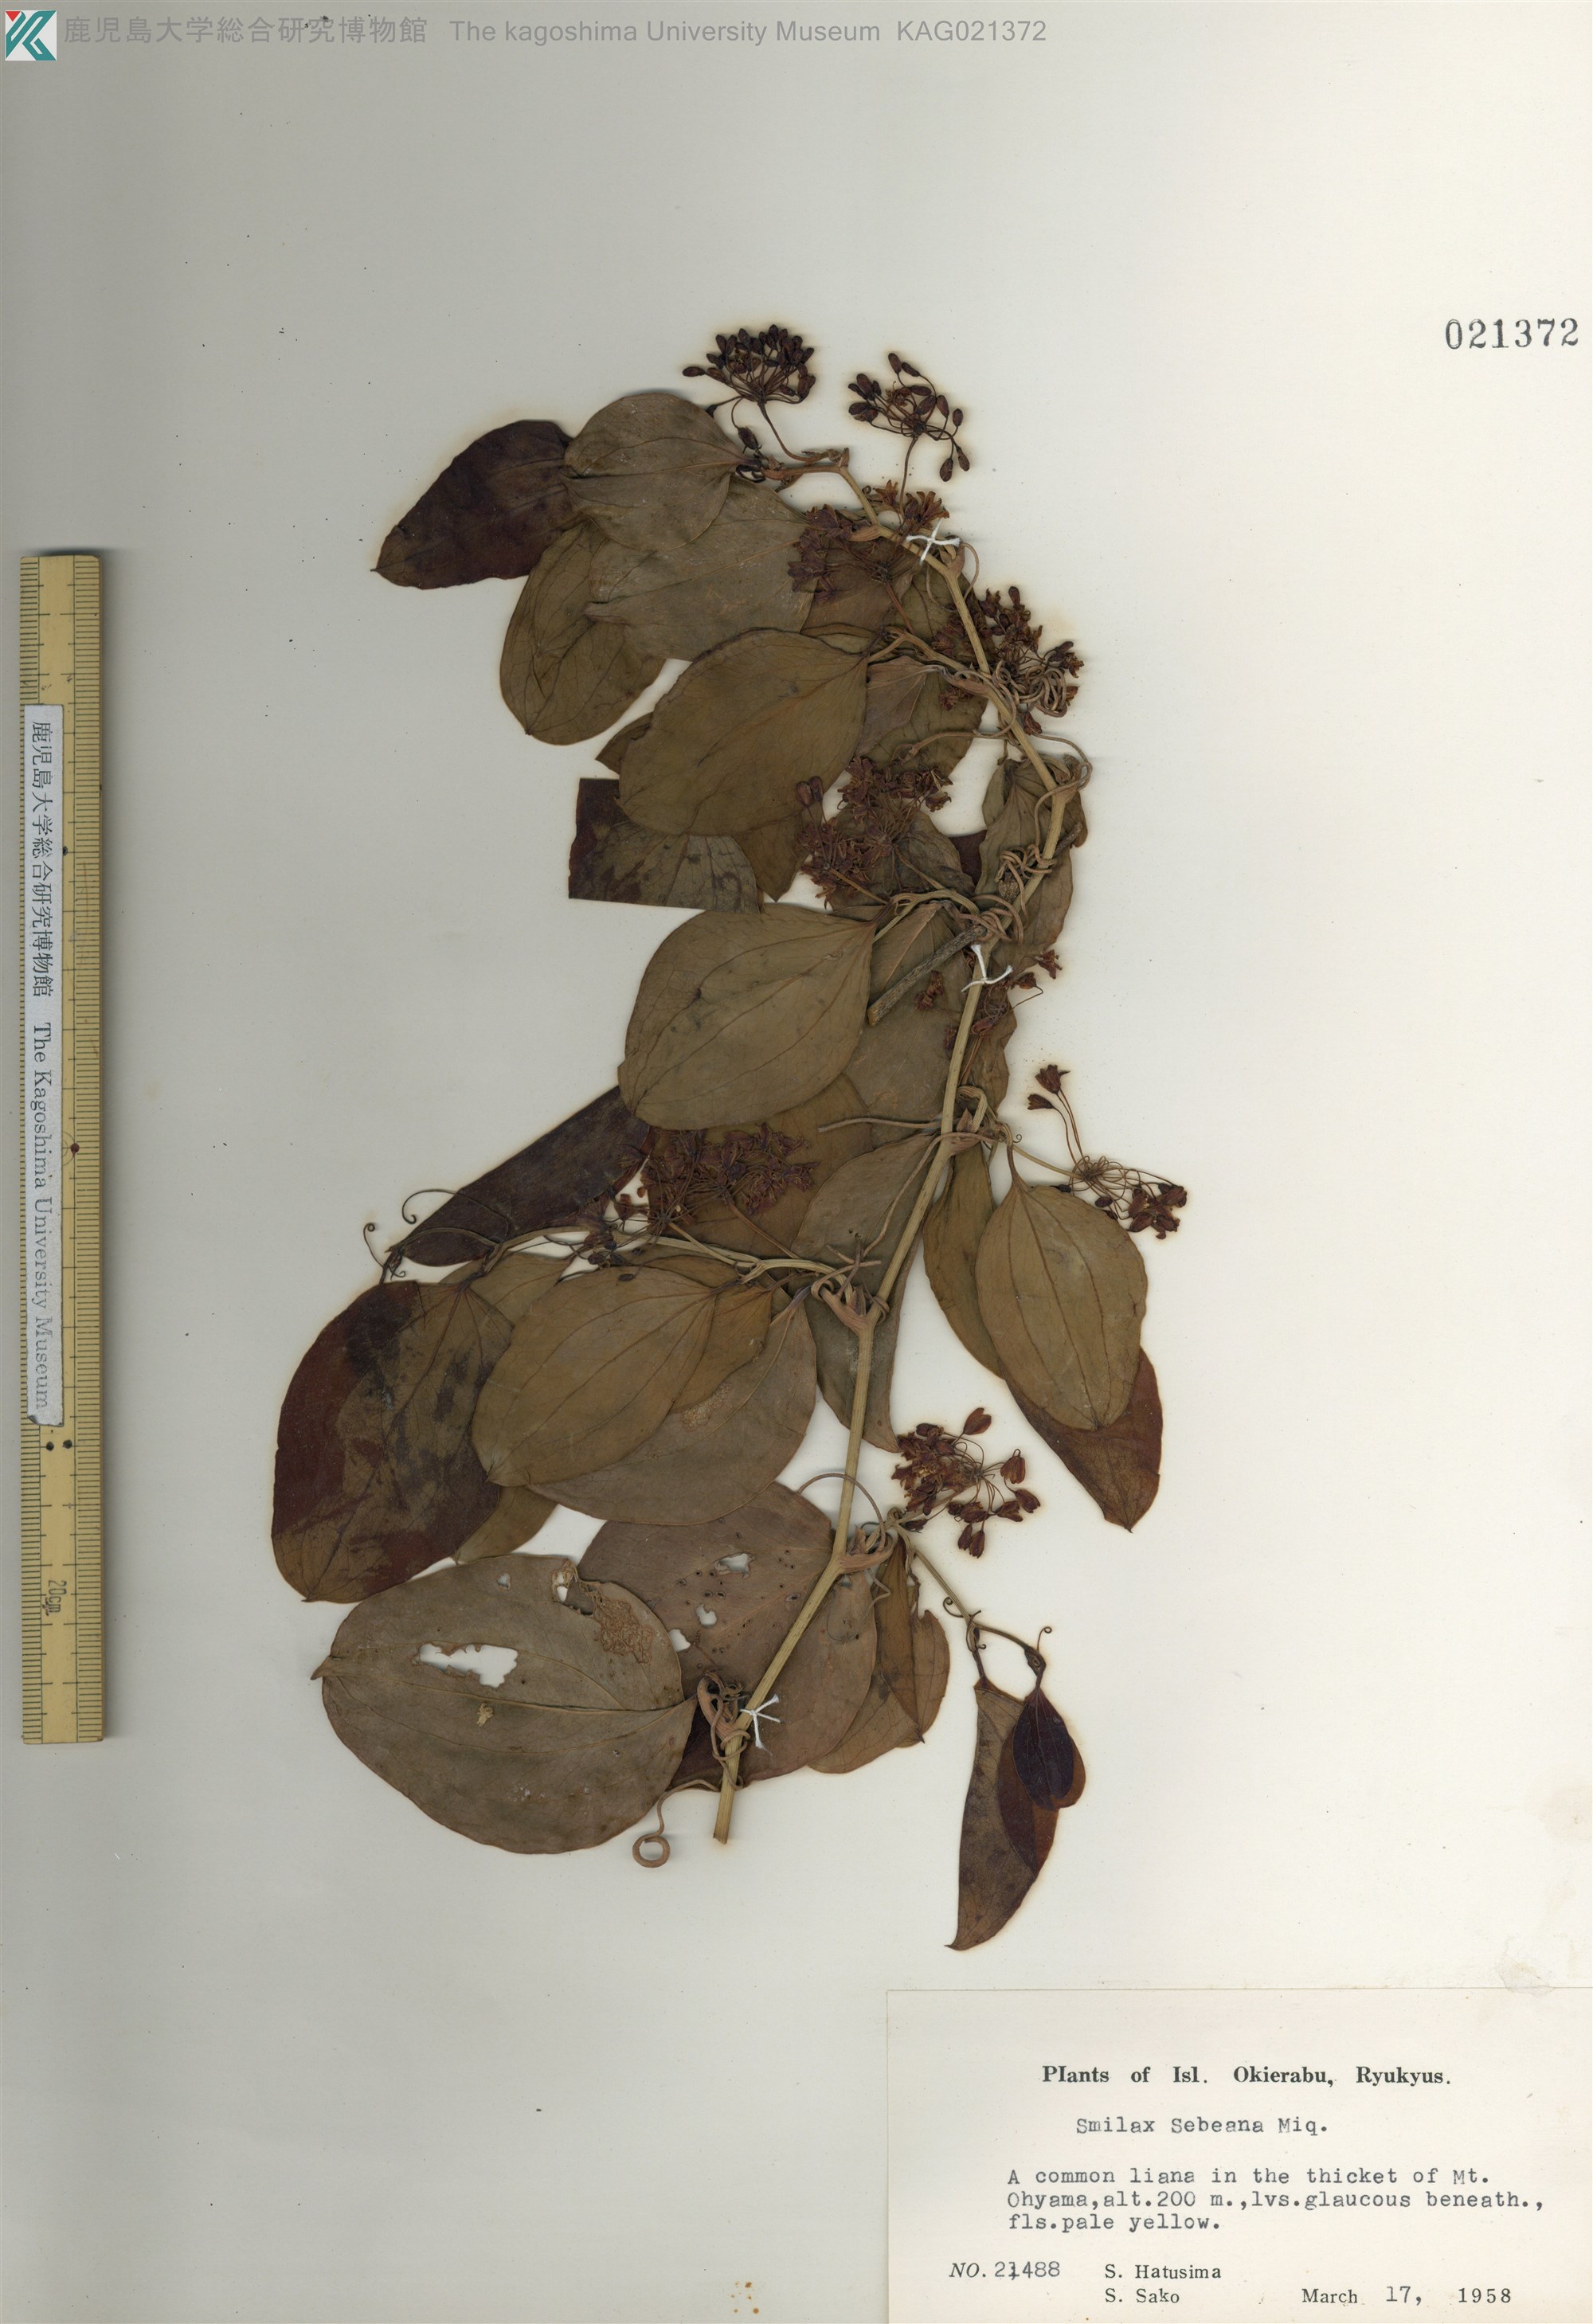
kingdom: Plantae
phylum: Tracheophyta
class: Liliopsida
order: Liliales
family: Smilacaceae
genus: Smilax
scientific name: Smilax sebeana
